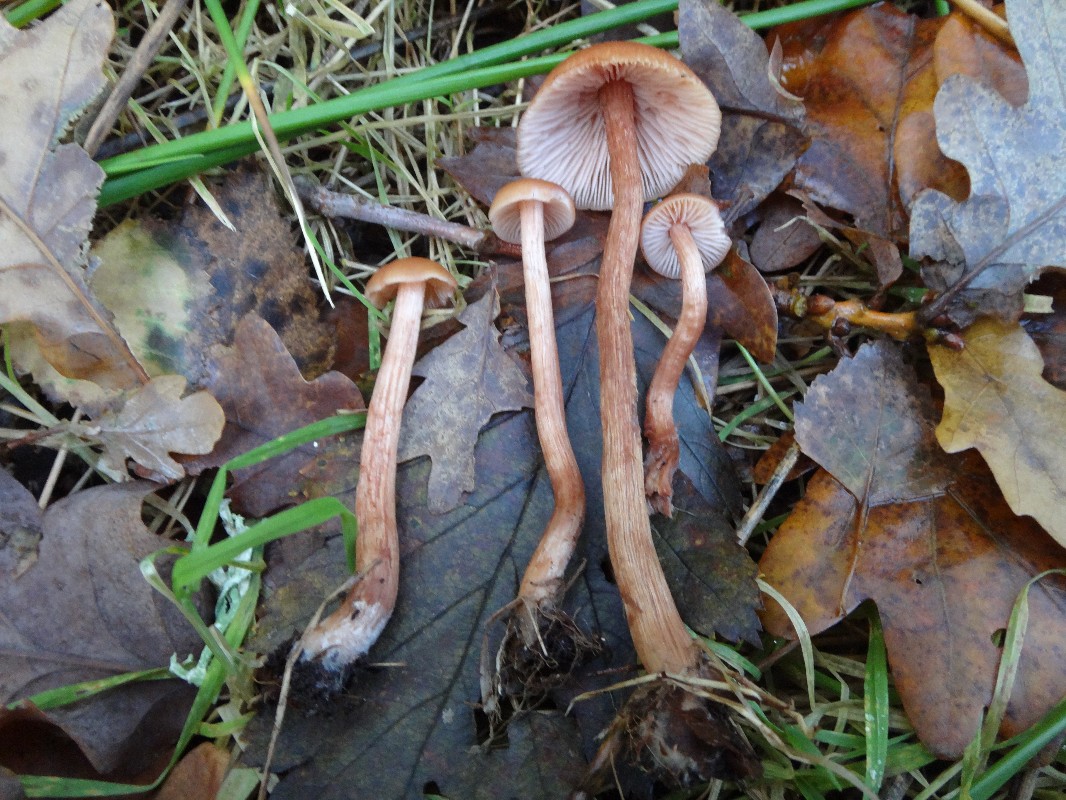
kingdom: Fungi
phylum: Basidiomycota
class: Agaricomycetes
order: Agaricales
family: Hydnangiaceae
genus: Laccaria
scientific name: Laccaria laccata
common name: rød ametysthat
